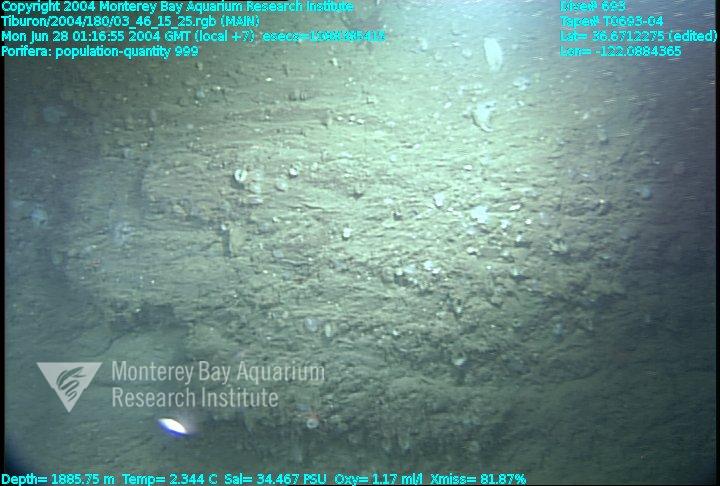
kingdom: Animalia
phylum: Porifera
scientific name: Porifera
